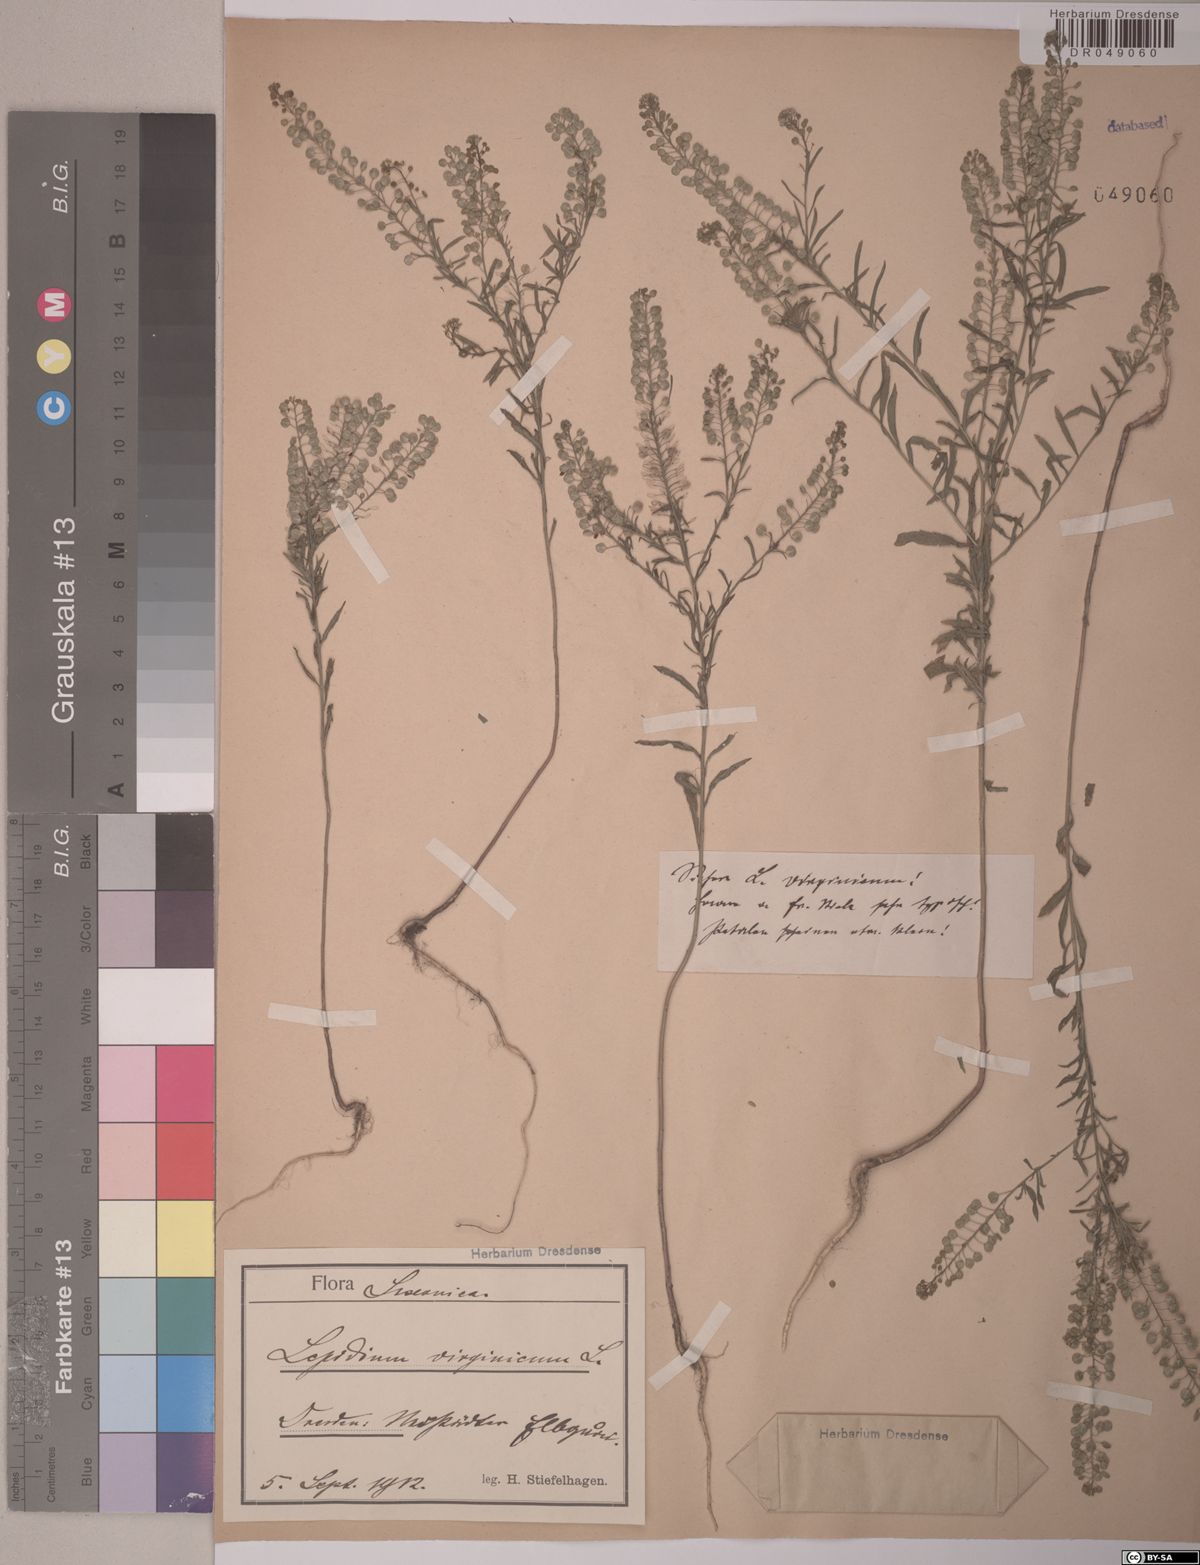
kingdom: Plantae
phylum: Tracheophyta
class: Magnoliopsida
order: Brassicales
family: Brassicaceae
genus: Lepidium
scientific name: Lepidium virginicum
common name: Least pepperwort
